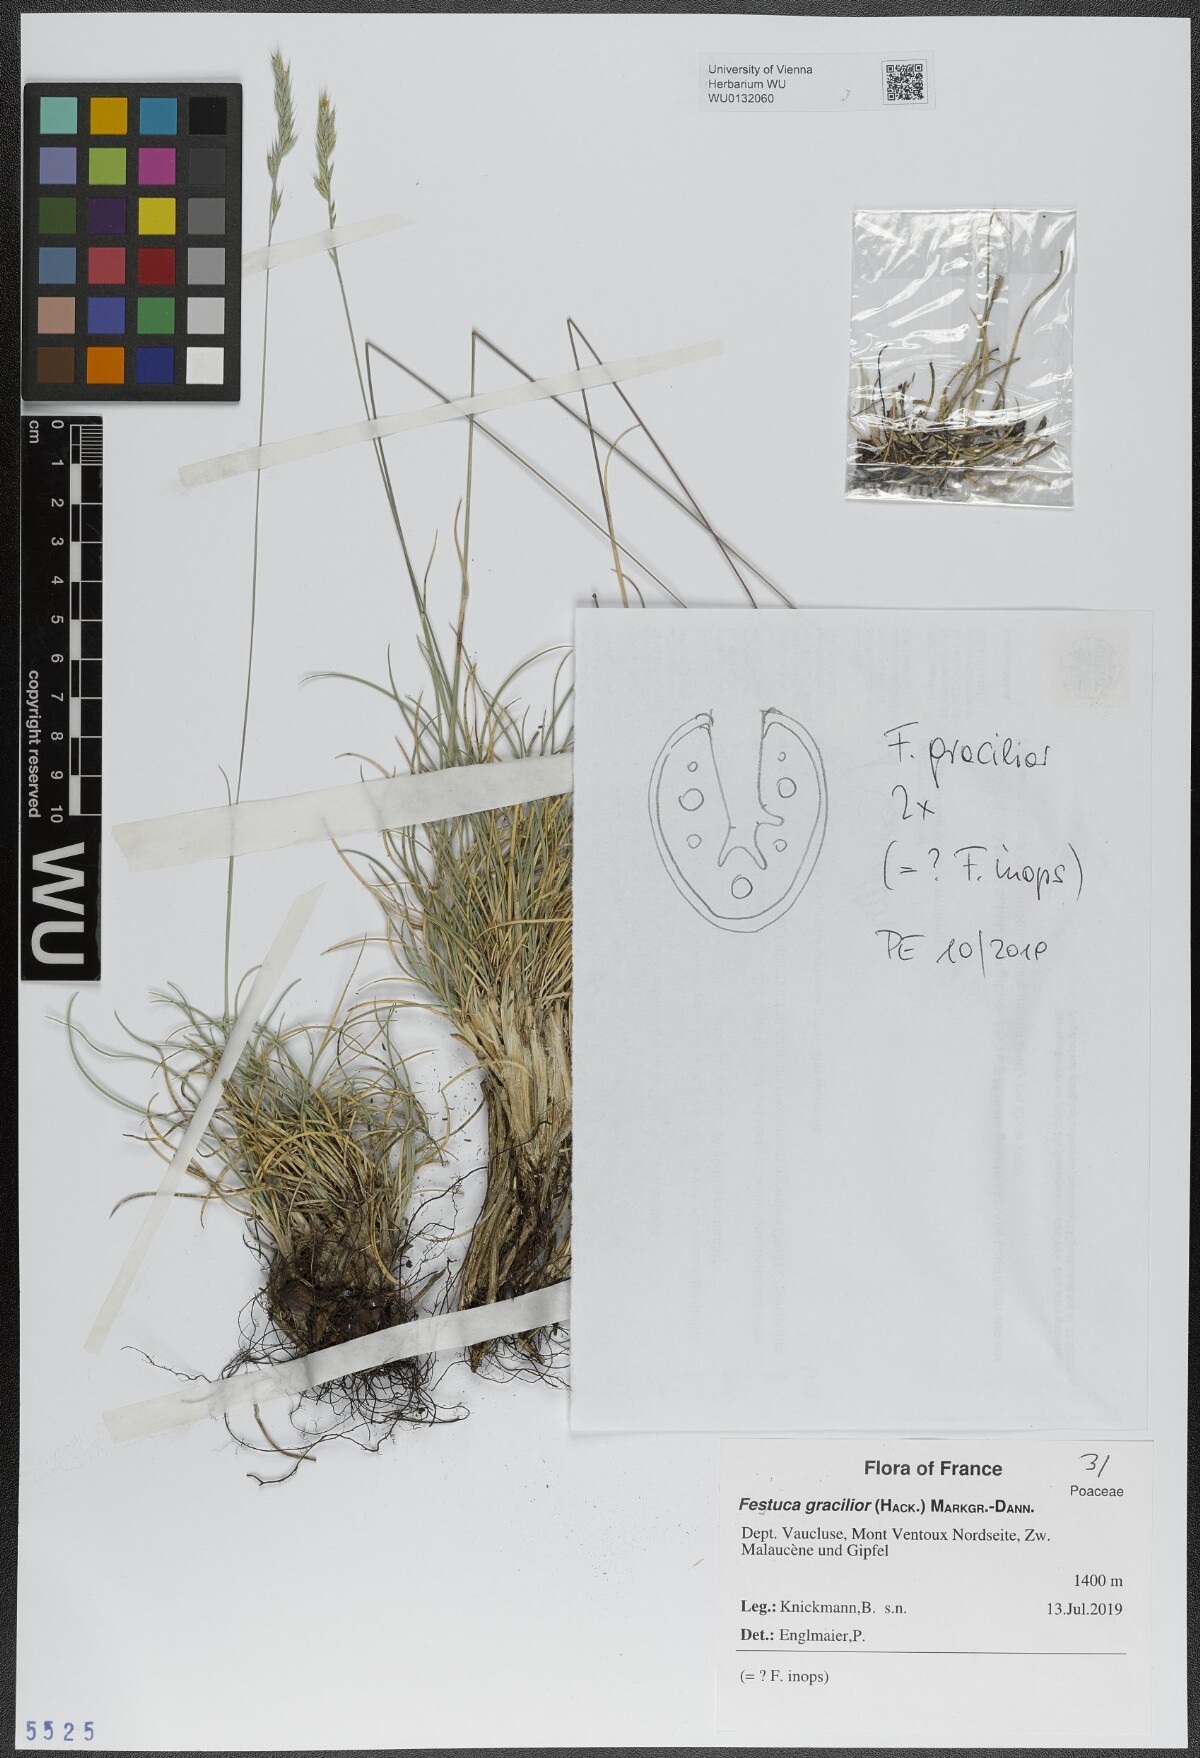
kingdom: Plantae
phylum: Tracheophyta
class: Liliopsida
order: Poales
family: Poaceae
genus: Festuca
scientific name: Festuca gracilior
